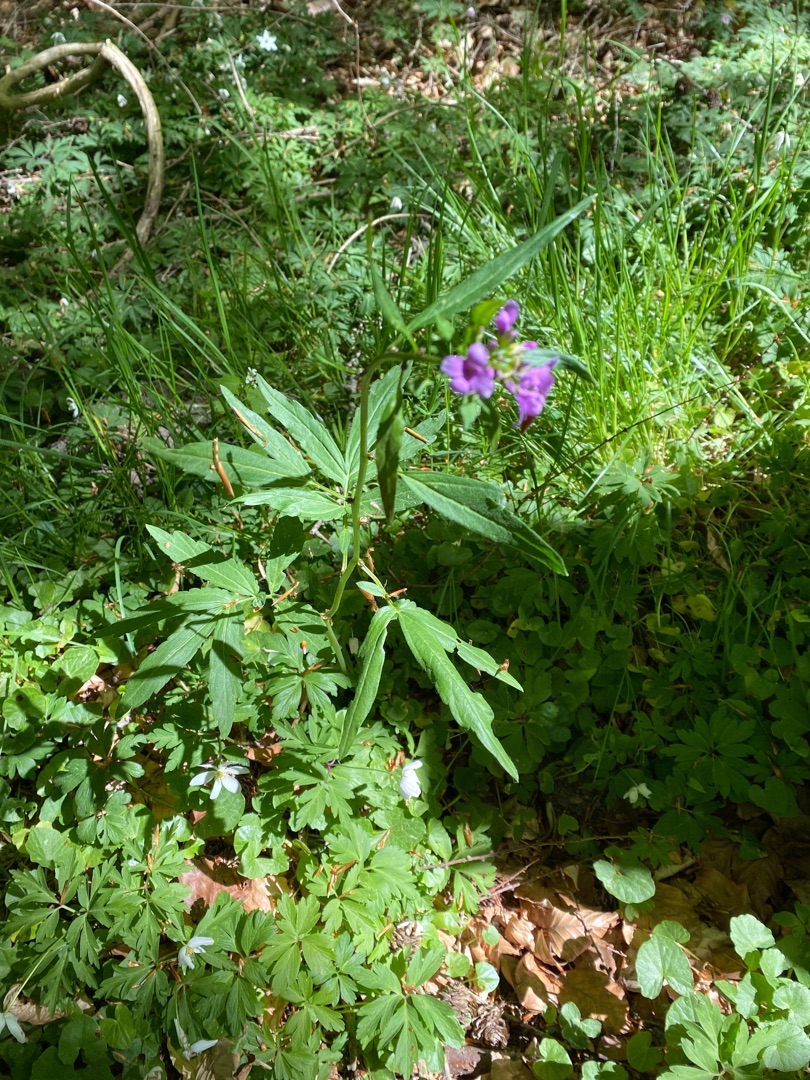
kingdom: Plantae
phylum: Tracheophyta
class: Magnoliopsida
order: Brassicales
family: Brassicaceae
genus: Cardamine
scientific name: Cardamine bulbifera
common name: Tandrod
